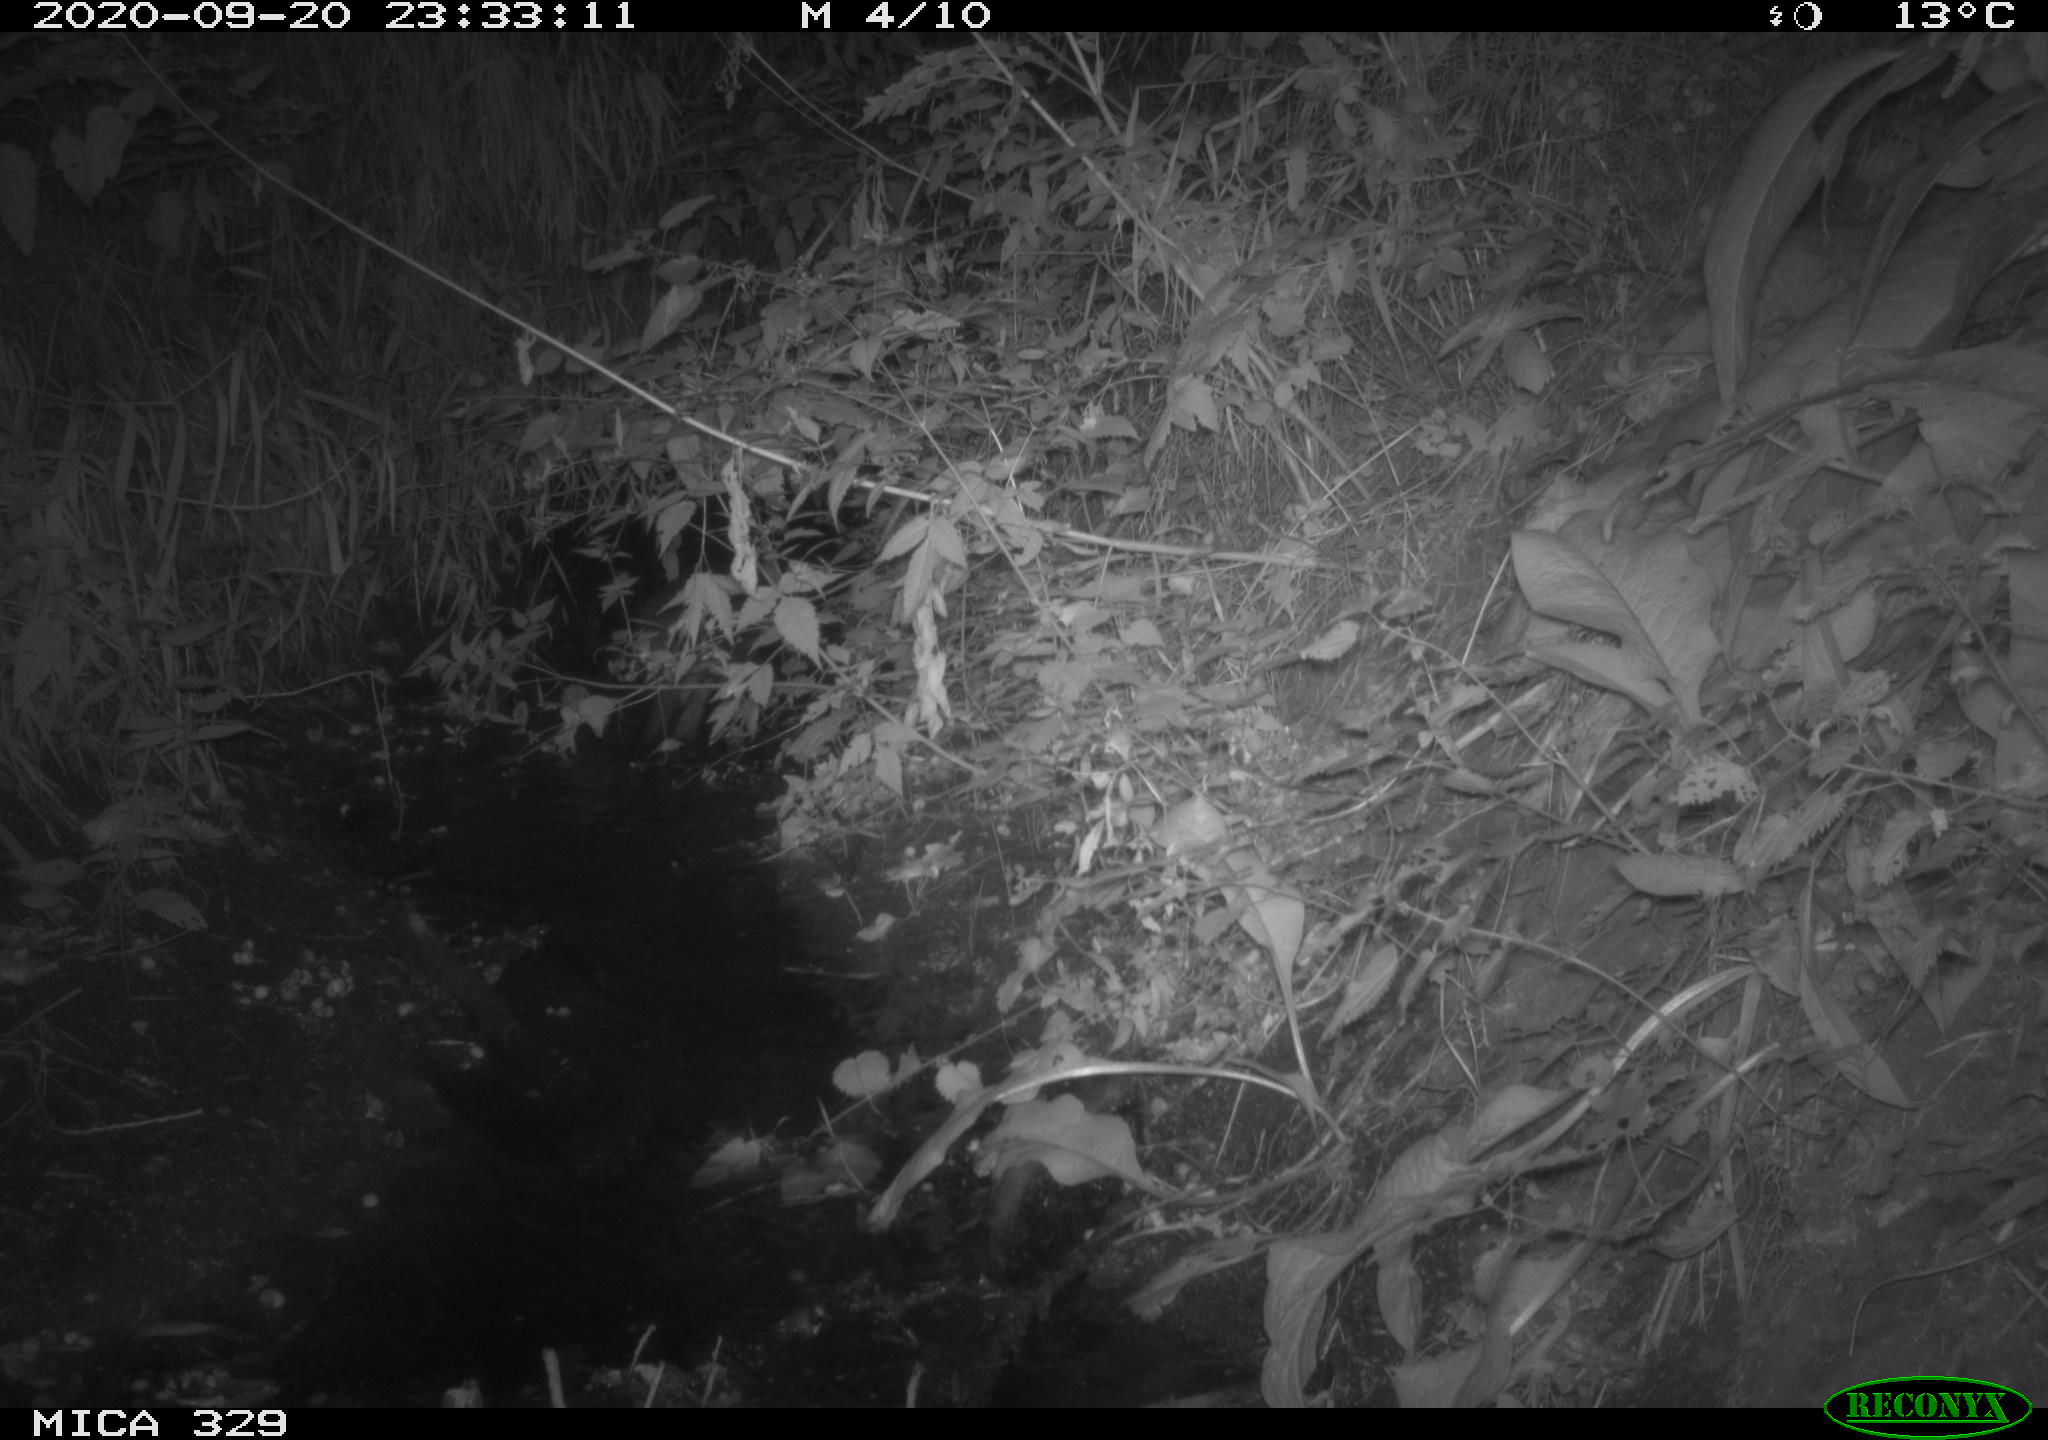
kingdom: Animalia
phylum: Chordata
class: Mammalia
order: Rodentia
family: Myocastoridae
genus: Myocastor
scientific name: Myocastor coypus
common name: Coypu
